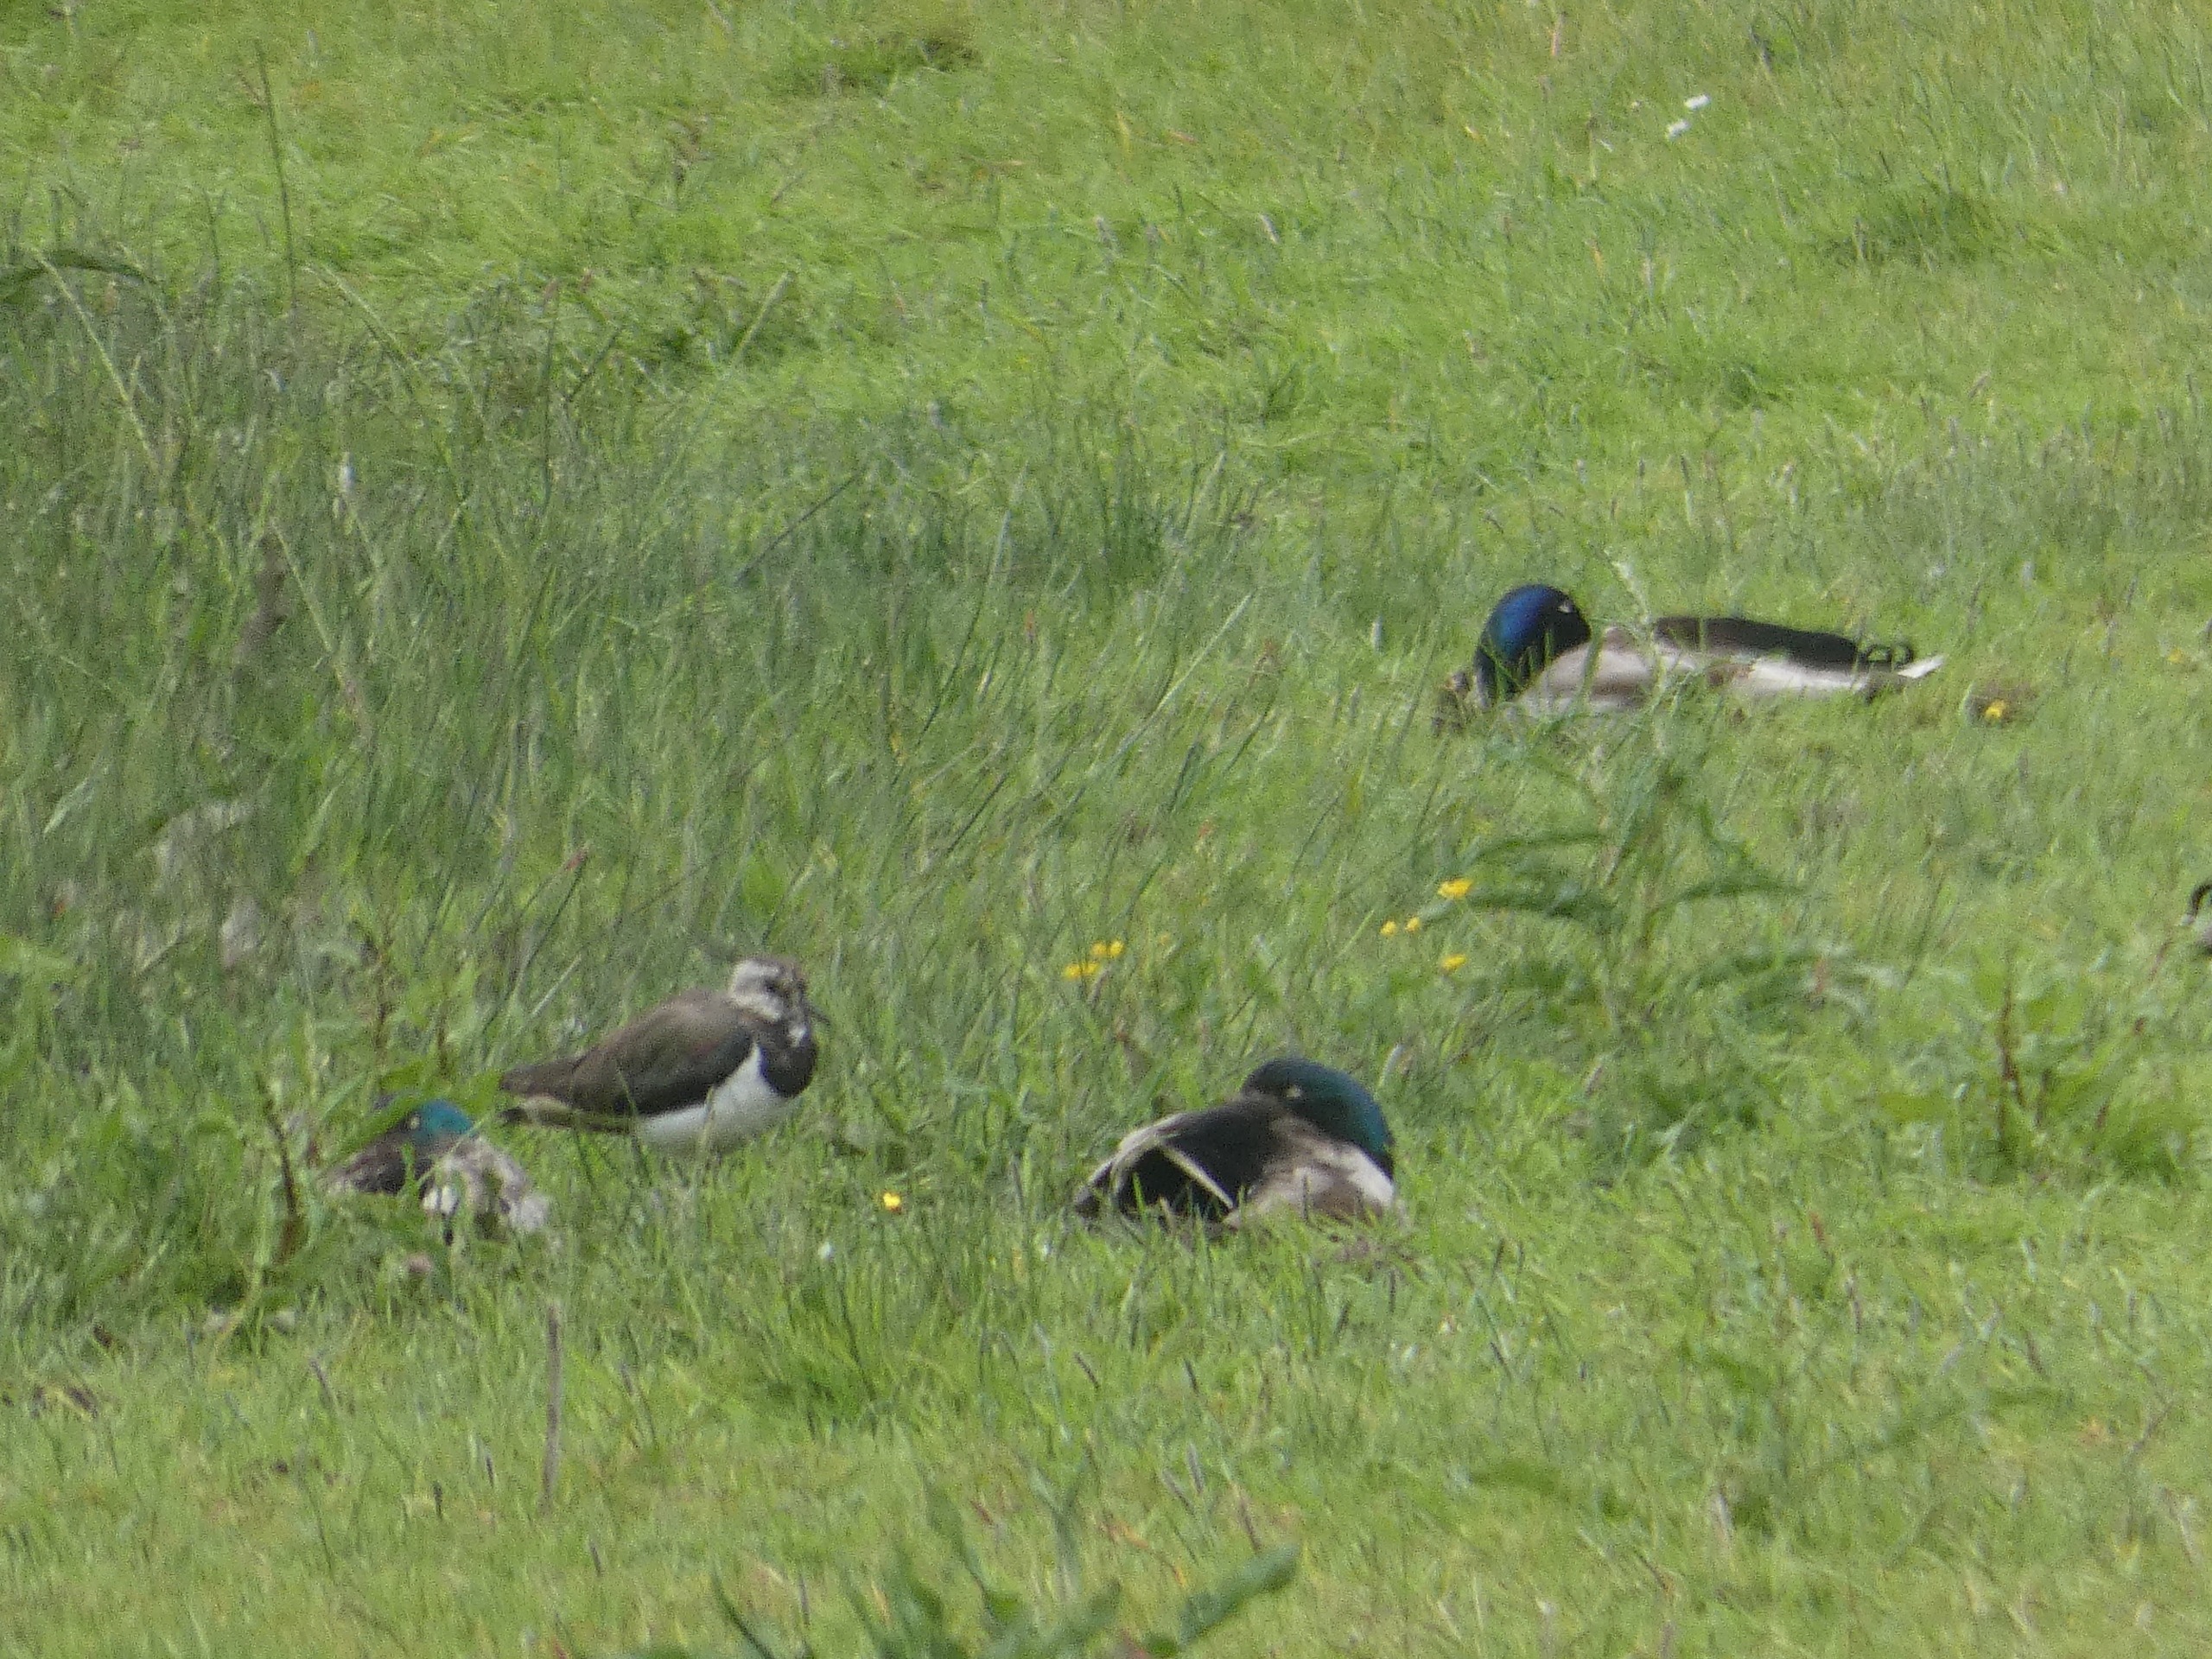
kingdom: Animalia
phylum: Chordata
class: Aves
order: Anseriformes
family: Anatidae
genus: Anas
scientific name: Anas platyrhynchos
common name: Gråand
